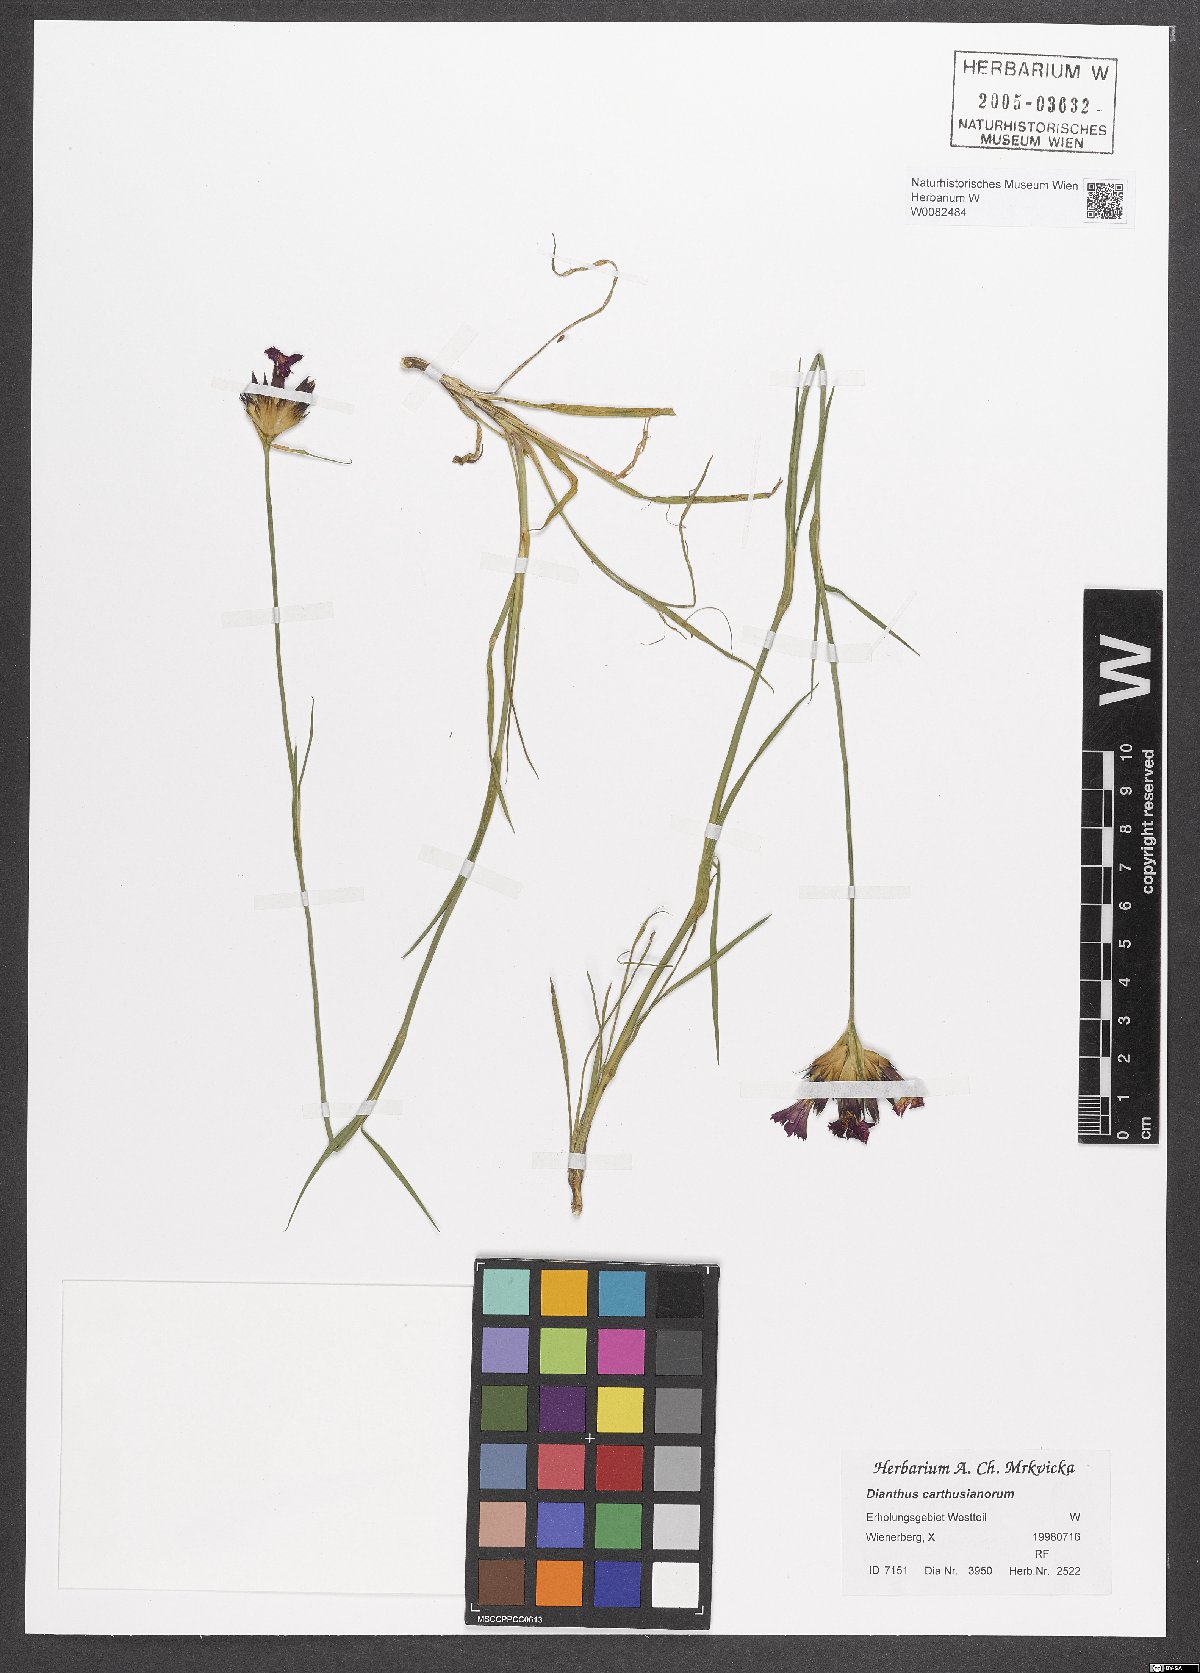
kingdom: Plantae
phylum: Tracheophyta
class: Magnoliopsida
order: Caryophyllales
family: Caryophyllaceae
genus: Dianthus
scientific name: Dianthus carthusianorum
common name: Carthusian pink
